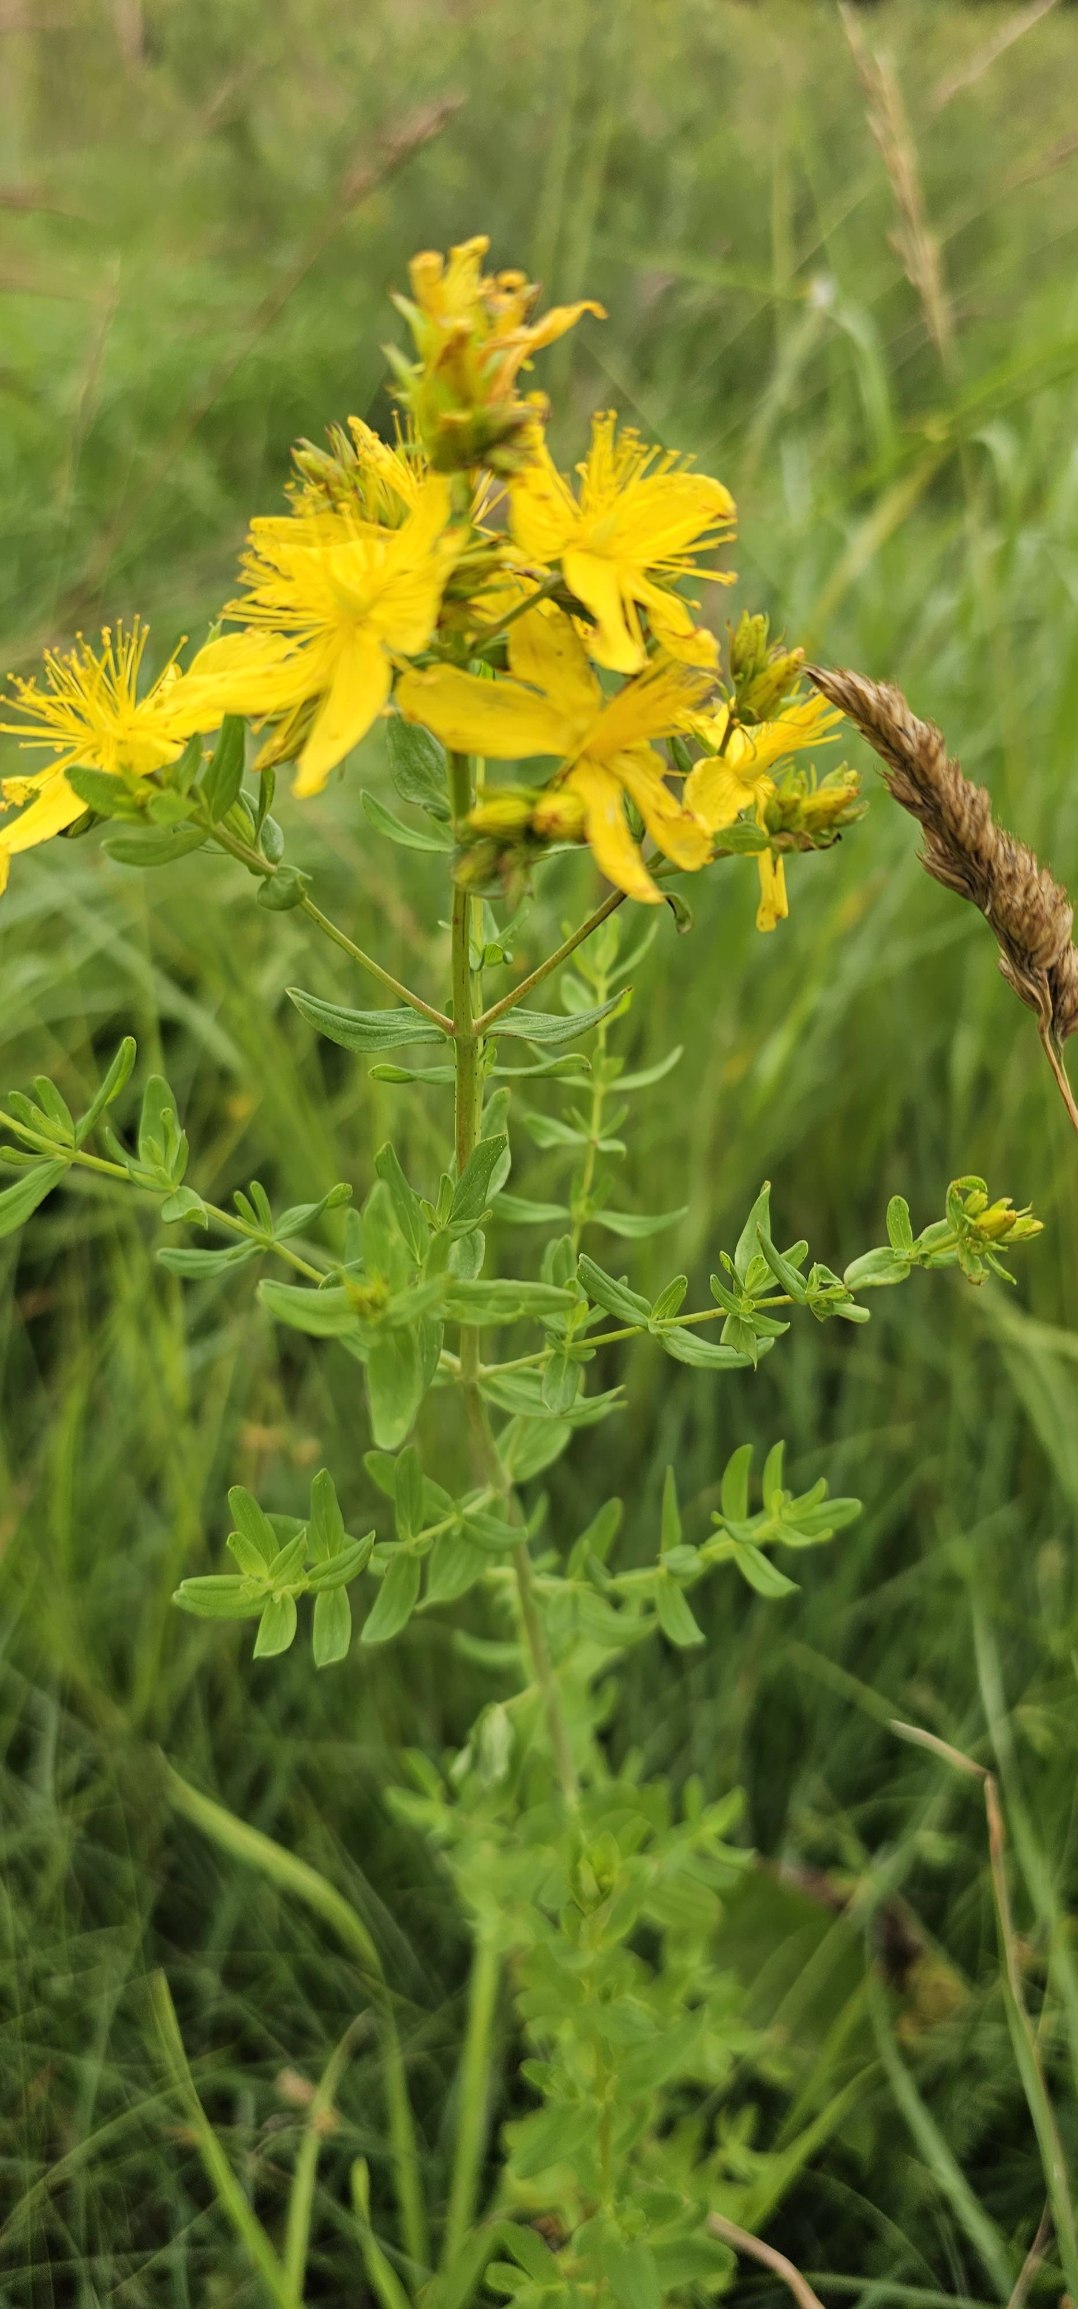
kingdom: Plantae
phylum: Tracheophyta
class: Magnoliopsida
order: Malpighiales
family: Hypericaceae
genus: Hypericum
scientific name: Hypericum perforatum
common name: Prikbladet perikon
